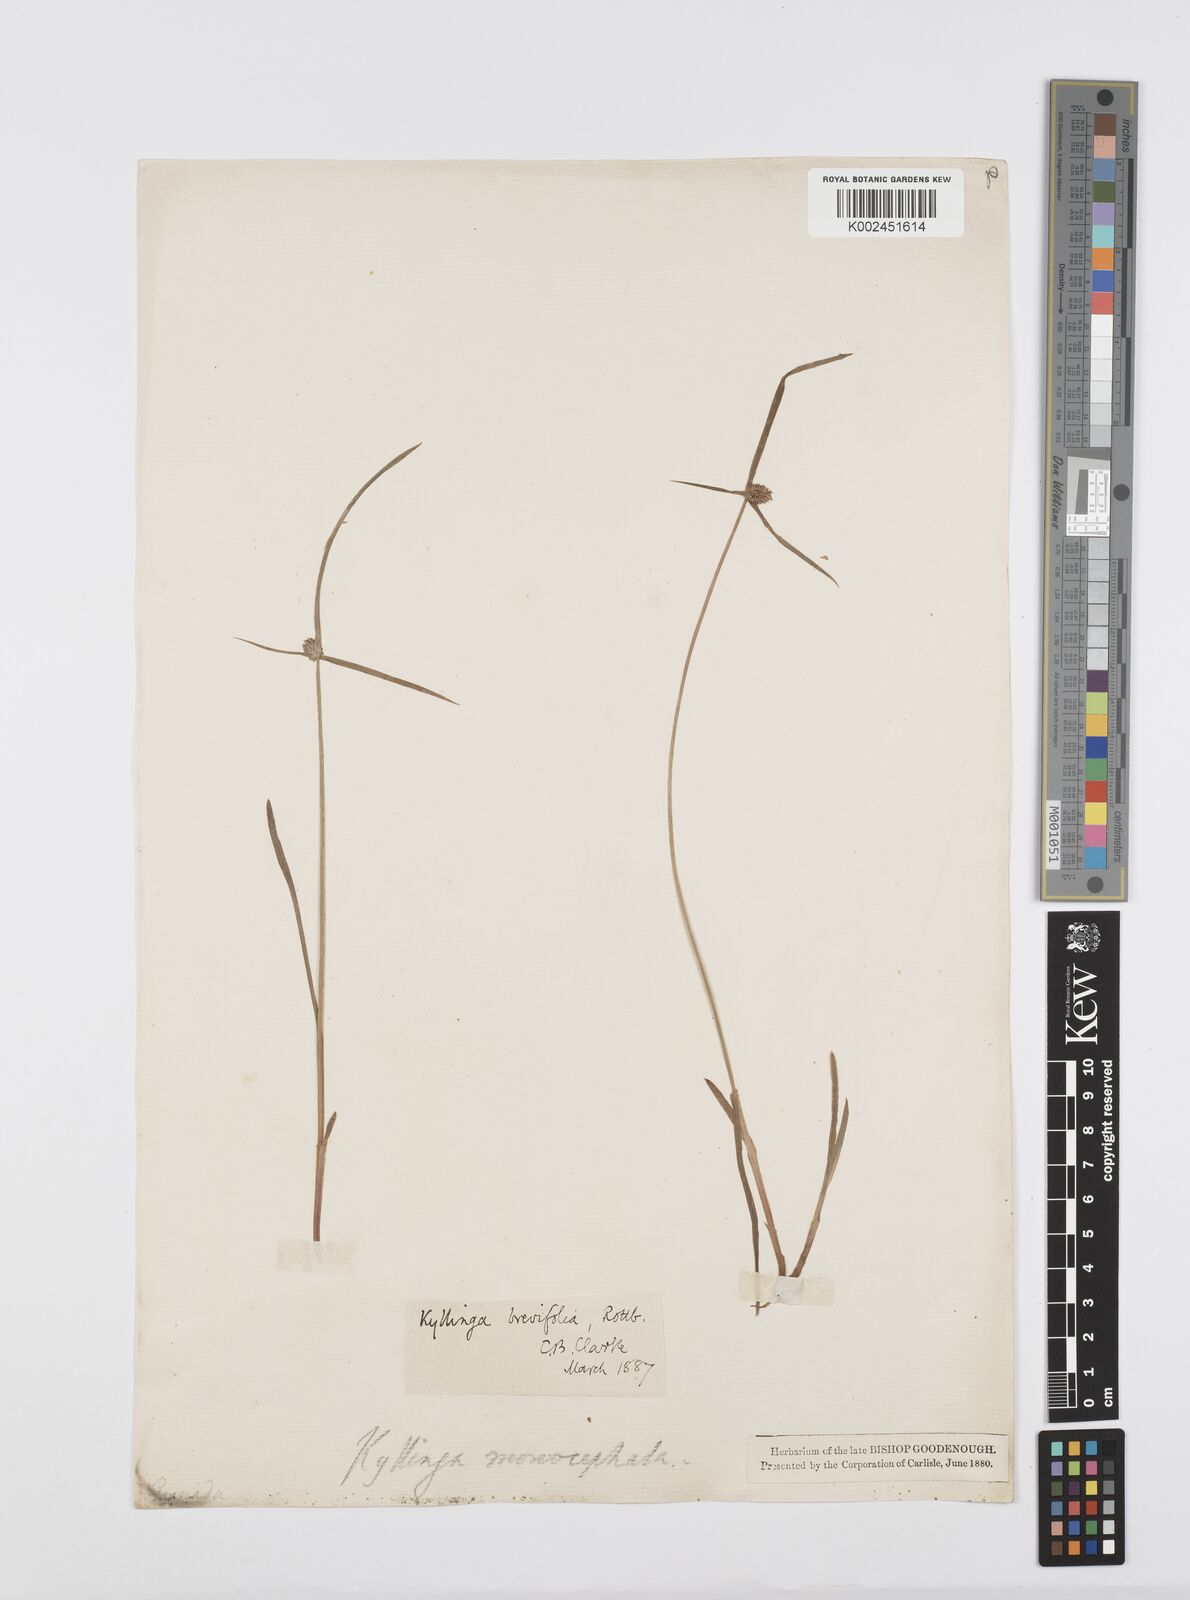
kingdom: Plantae
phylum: Tracheophyta
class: Liliopsida
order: Poales
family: Cyperaceae
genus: Cyperus
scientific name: Cyperus brevifolius
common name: Globe kyllinga
